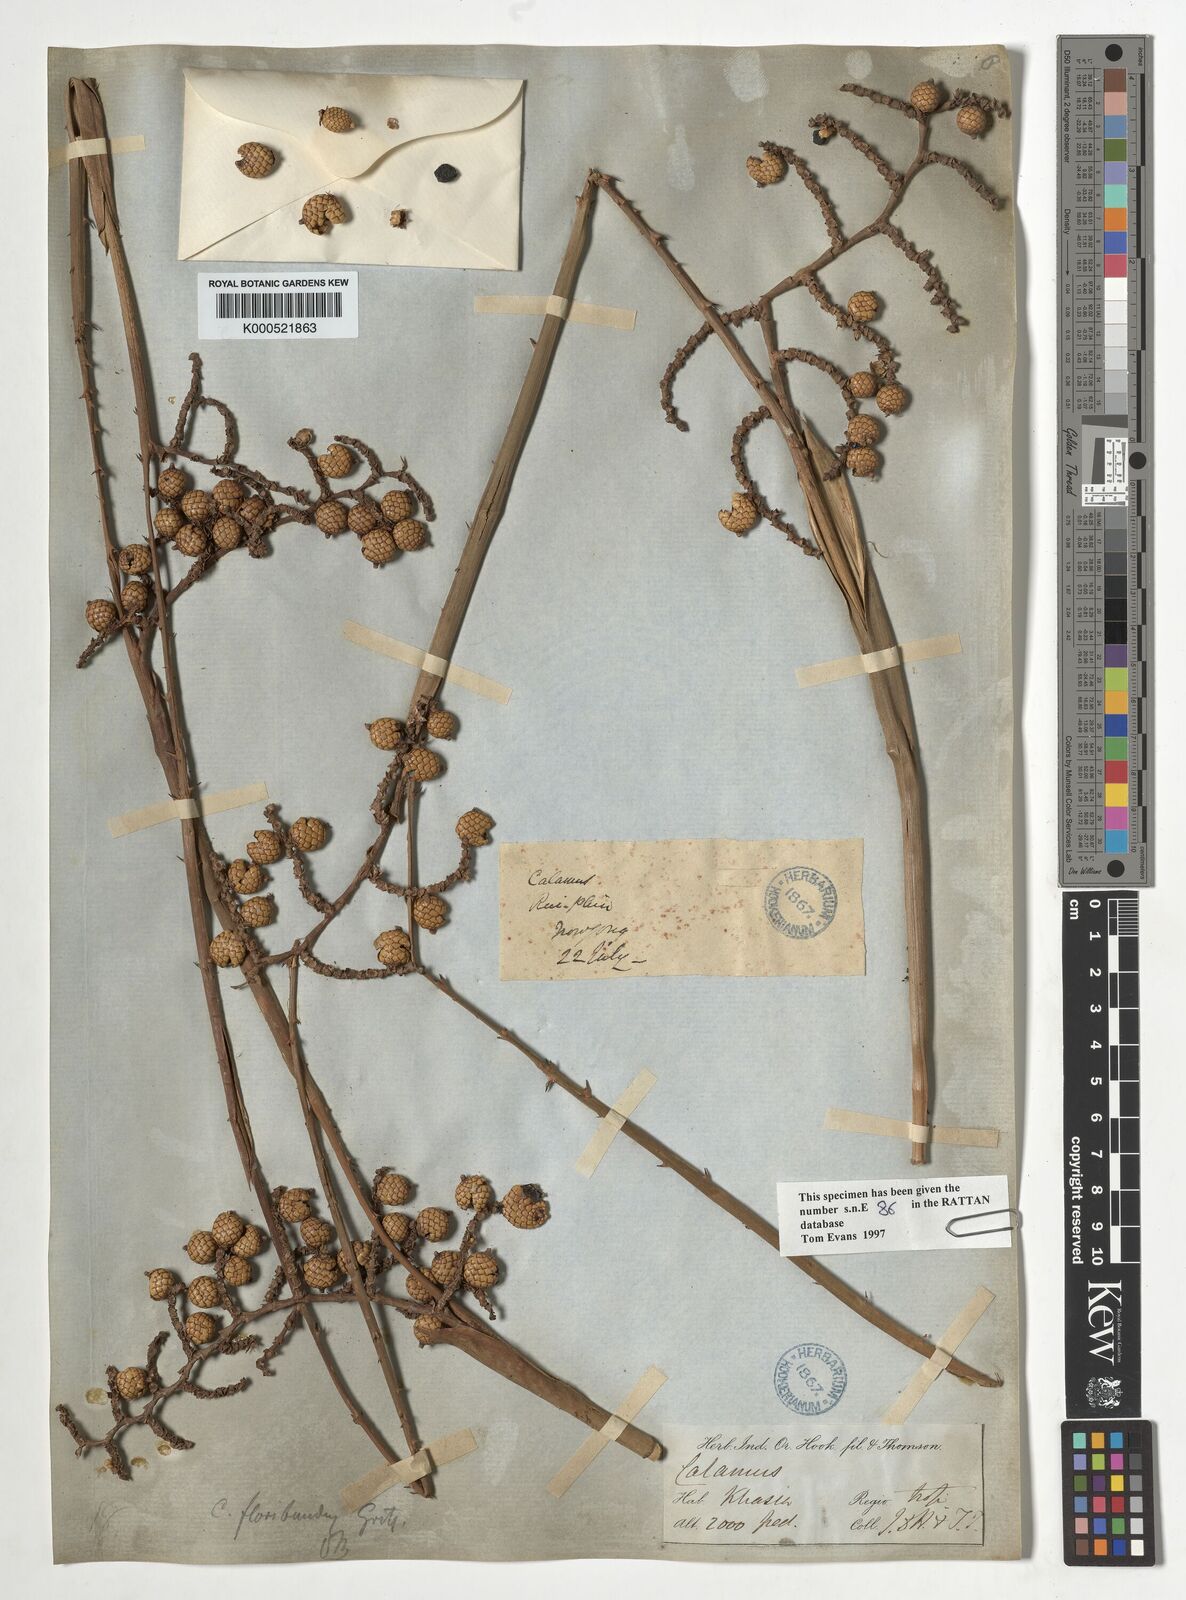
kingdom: Plantae
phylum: Tracheophyta
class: Liliopsida
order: Arecales
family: Arecaceae
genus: Calamus
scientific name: Calamus floribundus
